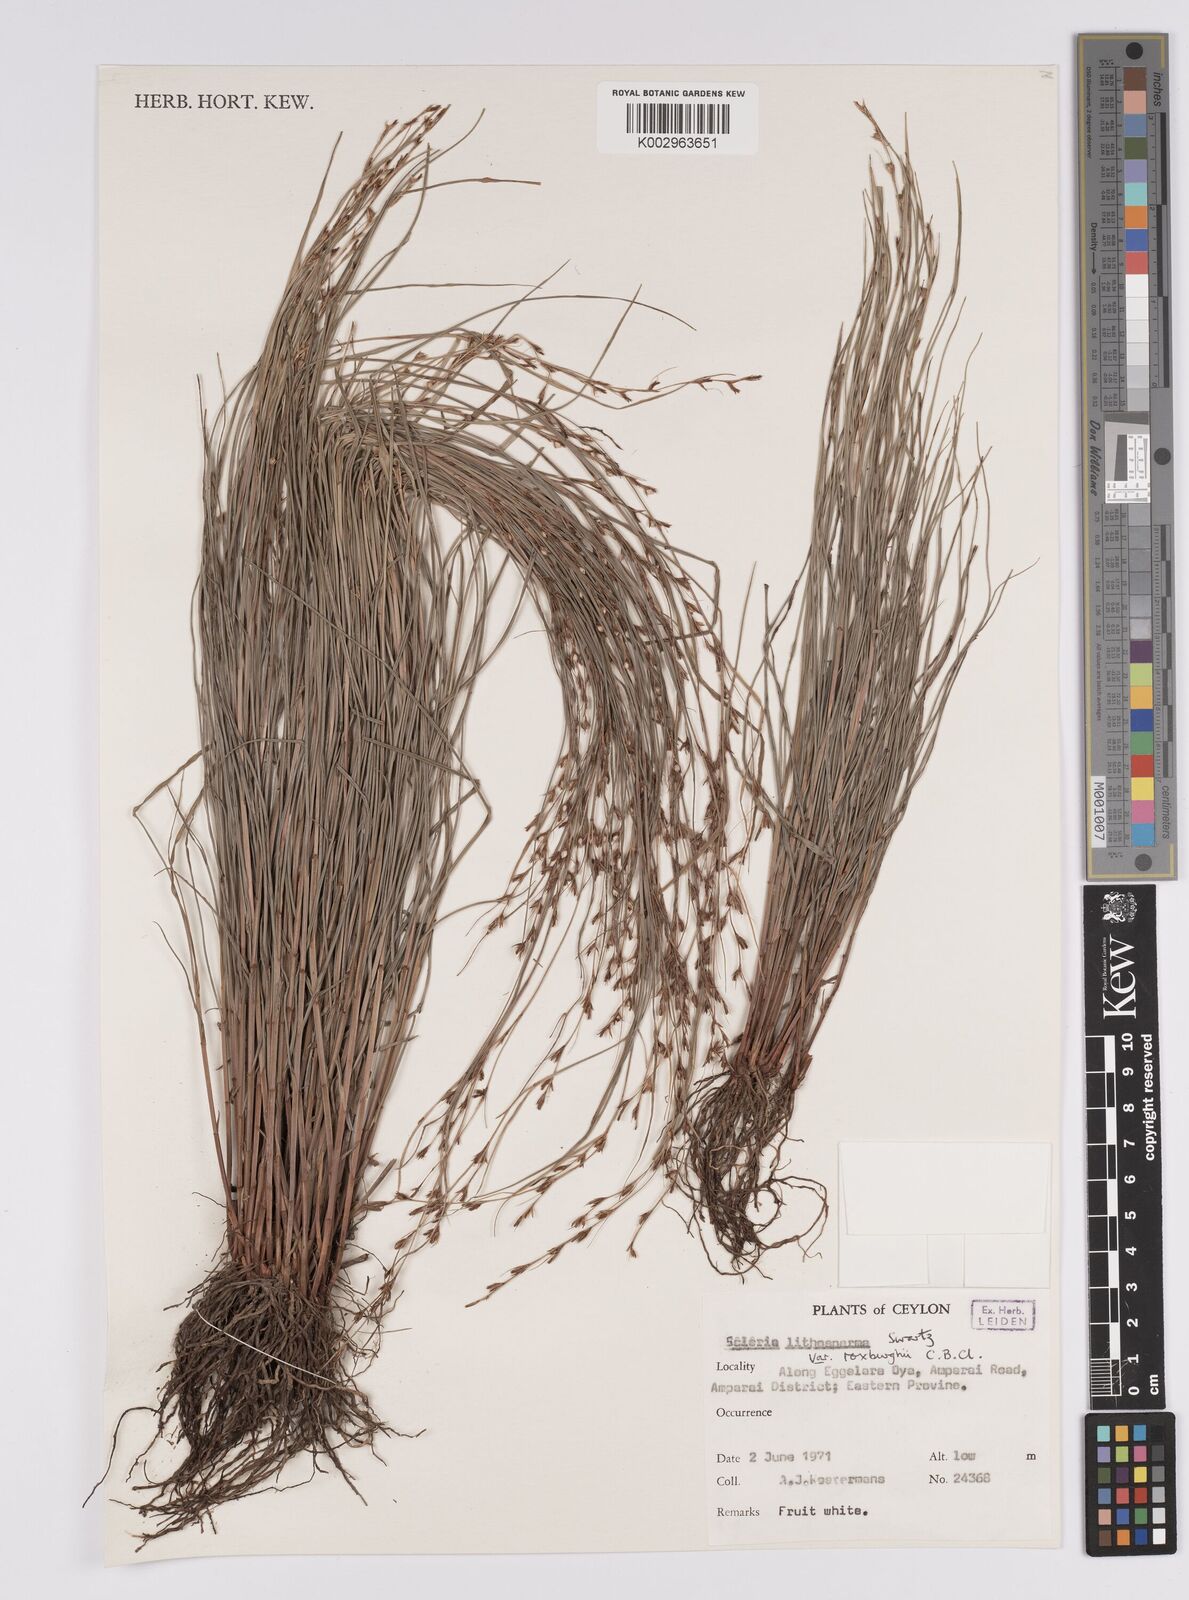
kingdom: Plantae
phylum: Tracheophyta
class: Liliopsida
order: Poales
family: Cyperaceae
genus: Scleria
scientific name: Scleria lithosperma
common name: Florida keys nut-rush
